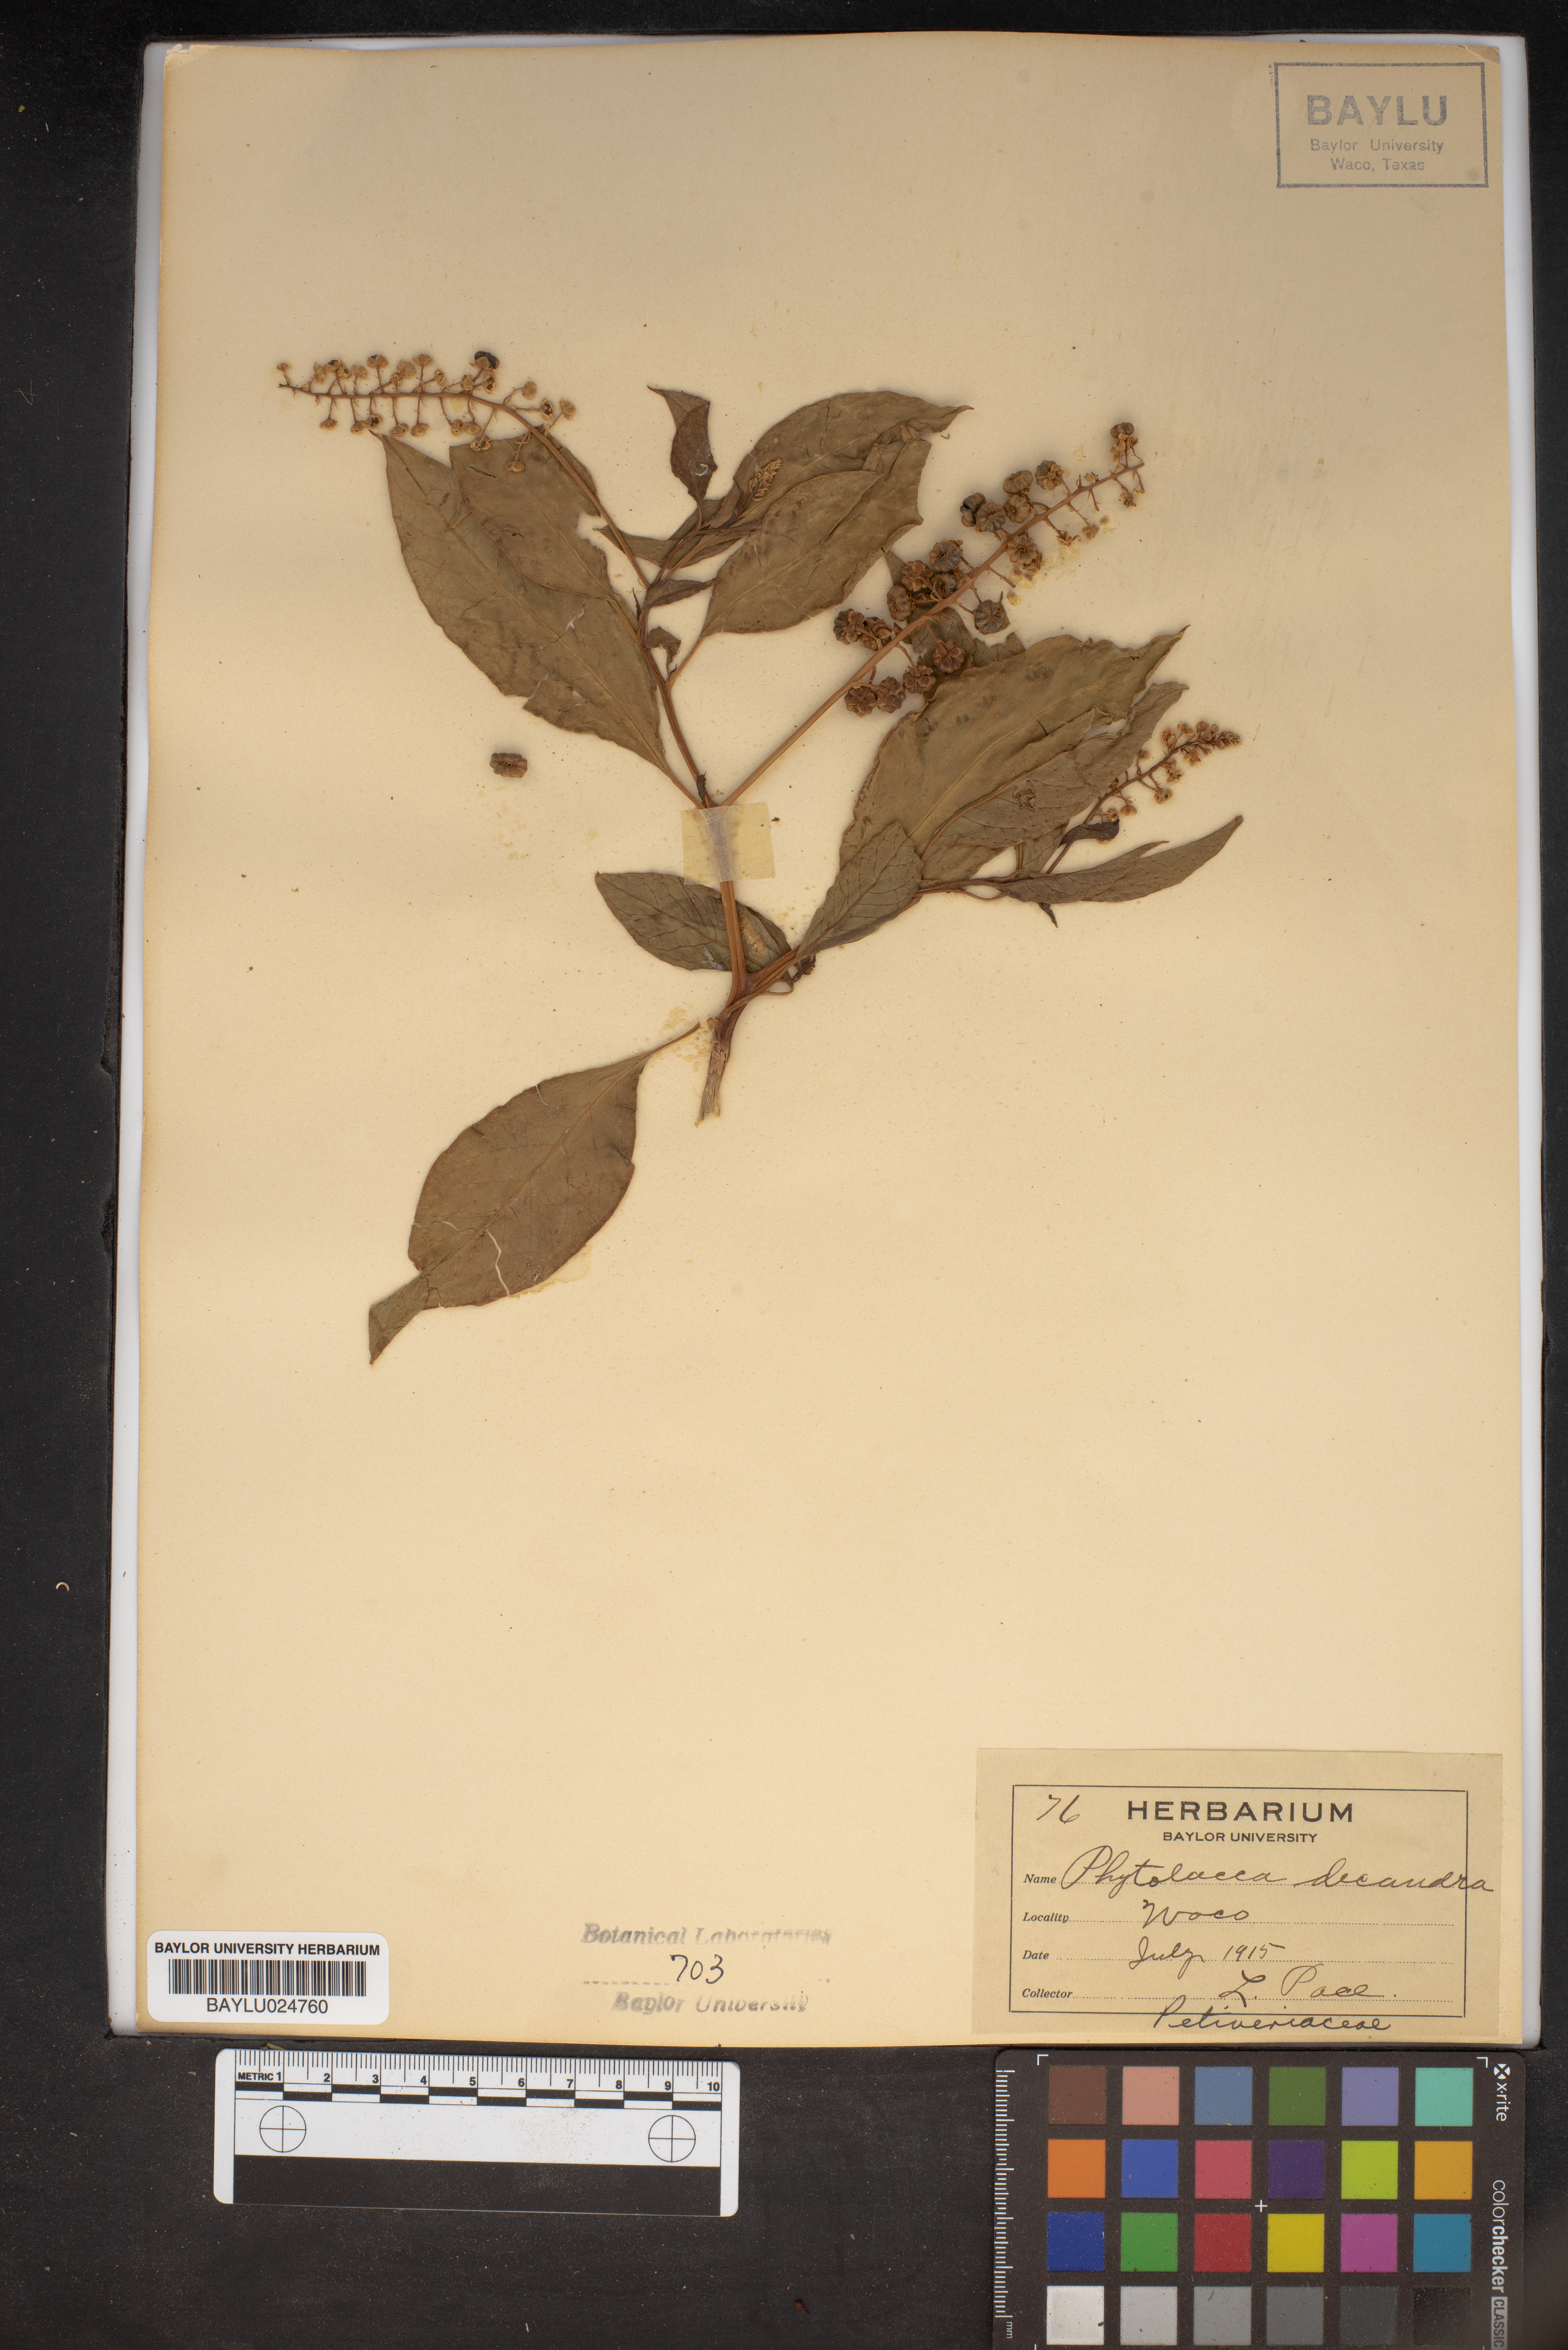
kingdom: Plantae
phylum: Tracheophyta
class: Magnoliopsida
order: Caryophyllales
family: Phytolaccaceae
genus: Phytolacca
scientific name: Phytolacca americana
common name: American pokeweed
